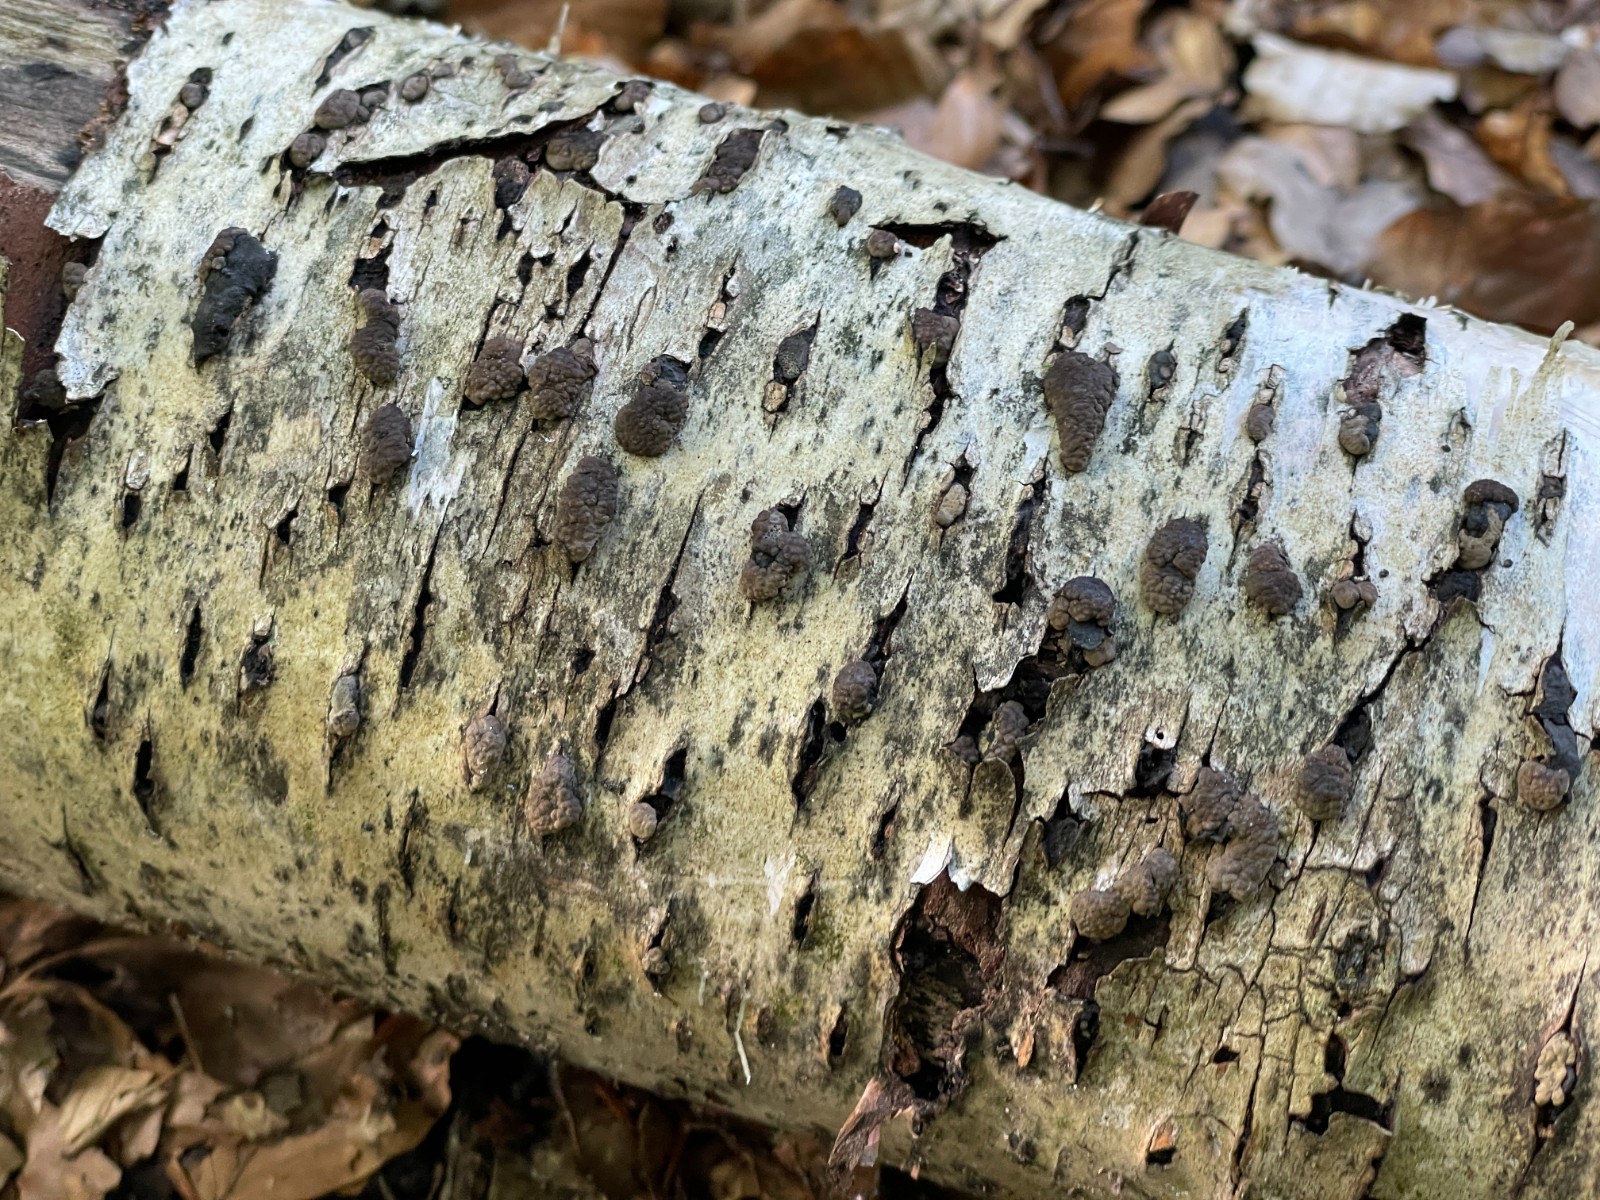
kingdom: Fungi
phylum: Ascomycota
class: Sordariomycetes
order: Xylariales
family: Hypoxylaceae
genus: Jackrogersella
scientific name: Jackrogersella multiformis
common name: foranderlig kulbær
